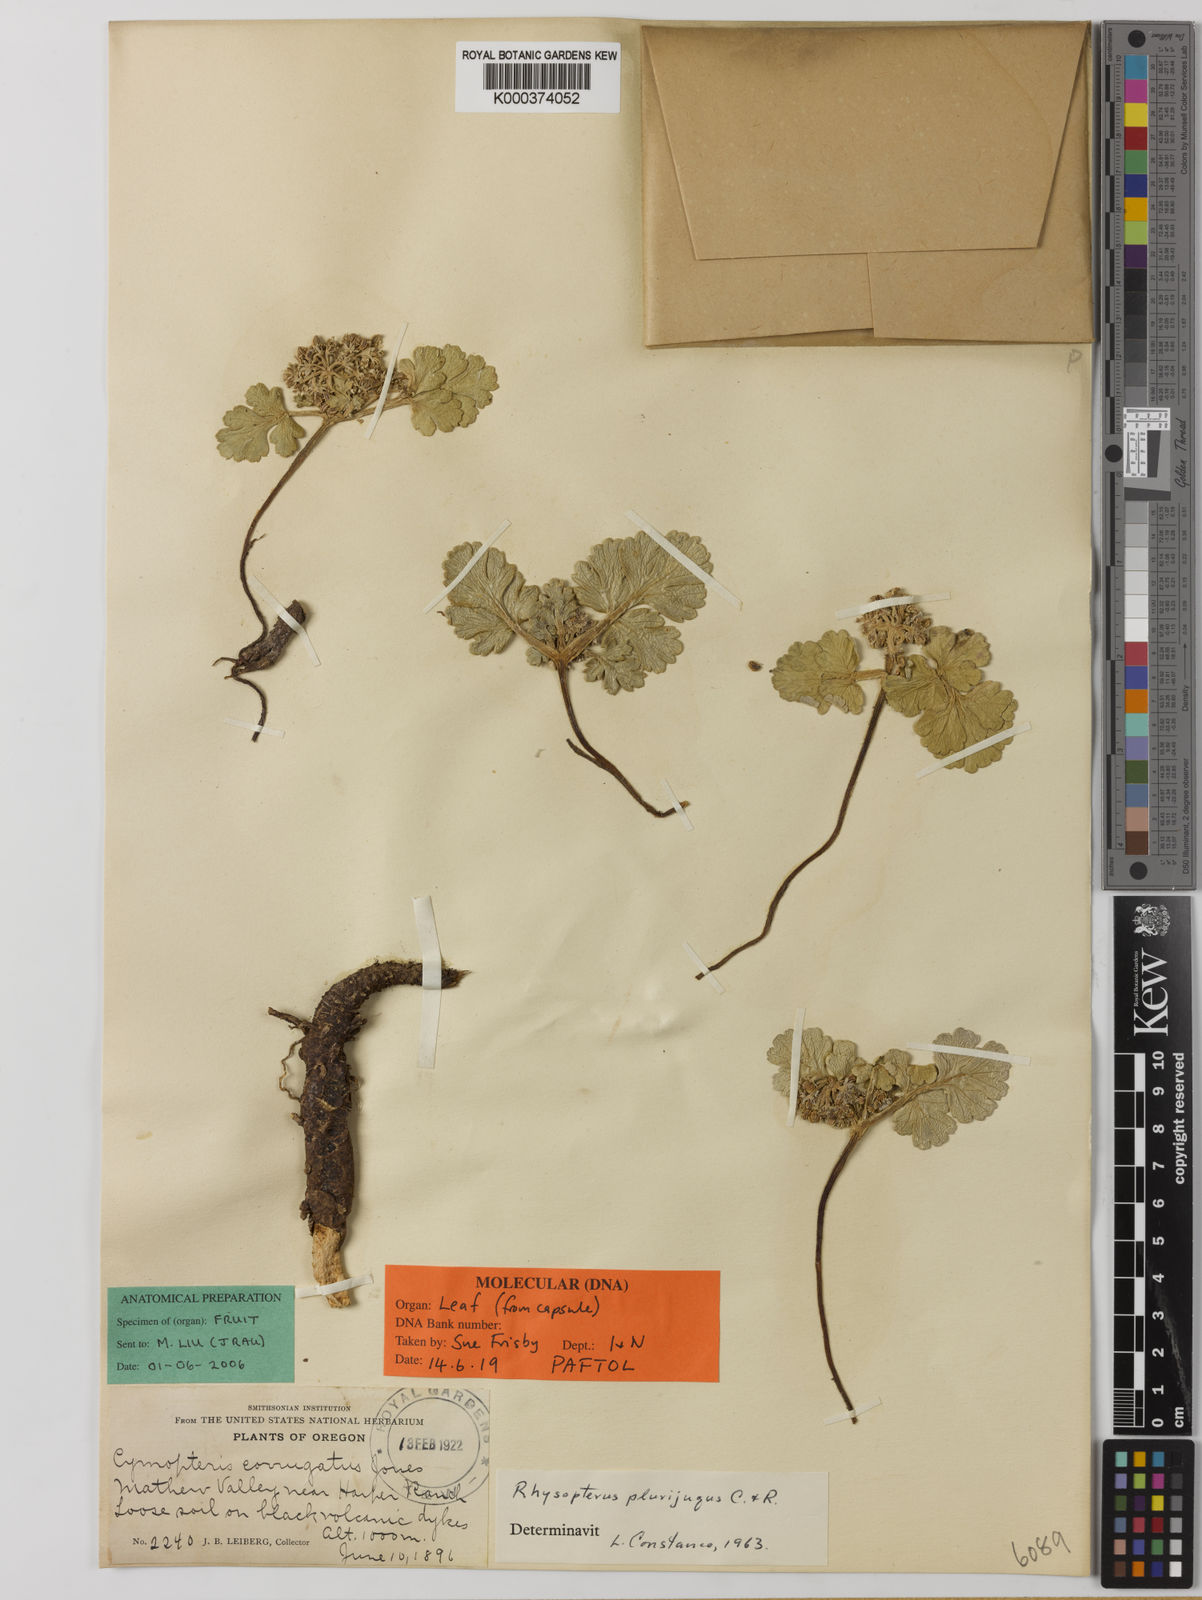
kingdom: Plantae
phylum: Tracheophyta
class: Magnoliopsida
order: Apiales
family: Apiaceae
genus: Rhysopterus
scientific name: Rhysopterus
